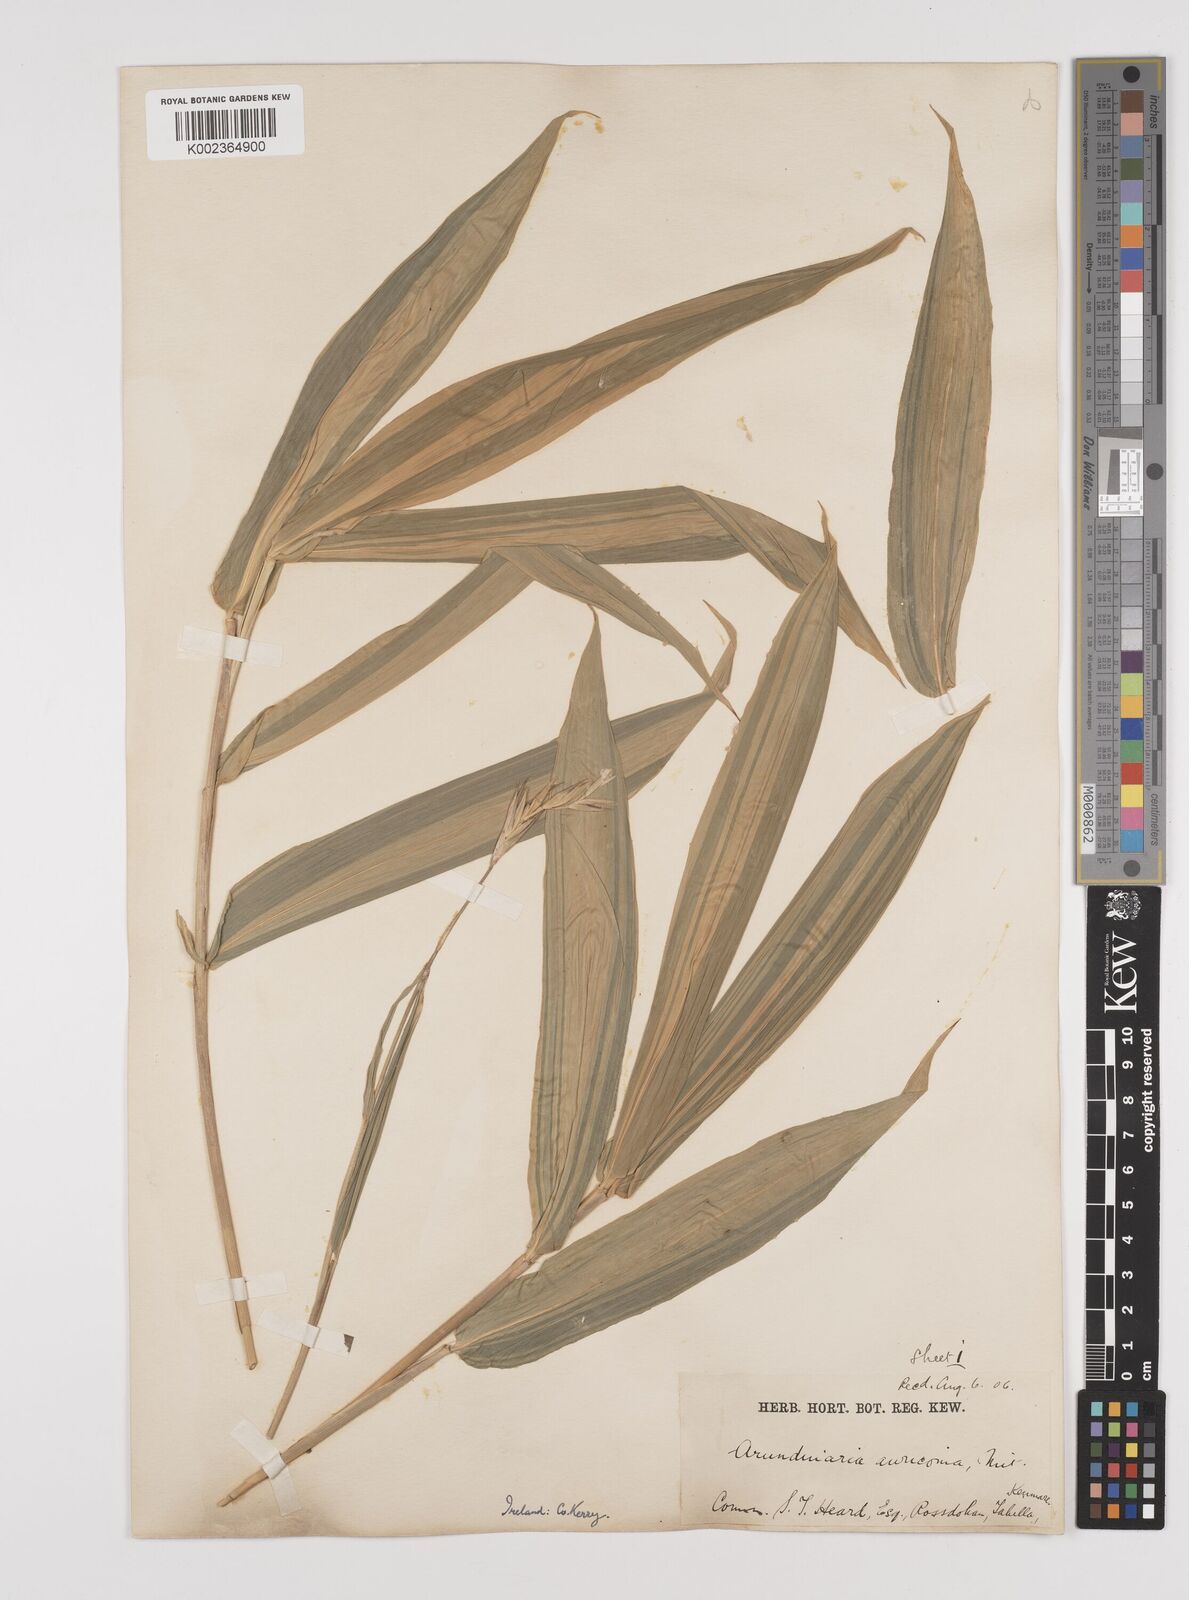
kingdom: Plantae
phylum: Tracheophyta
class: Liliopsida
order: Poales
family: Poaceae
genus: Pleioblastus
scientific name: Pleioblastus viridistriatus
